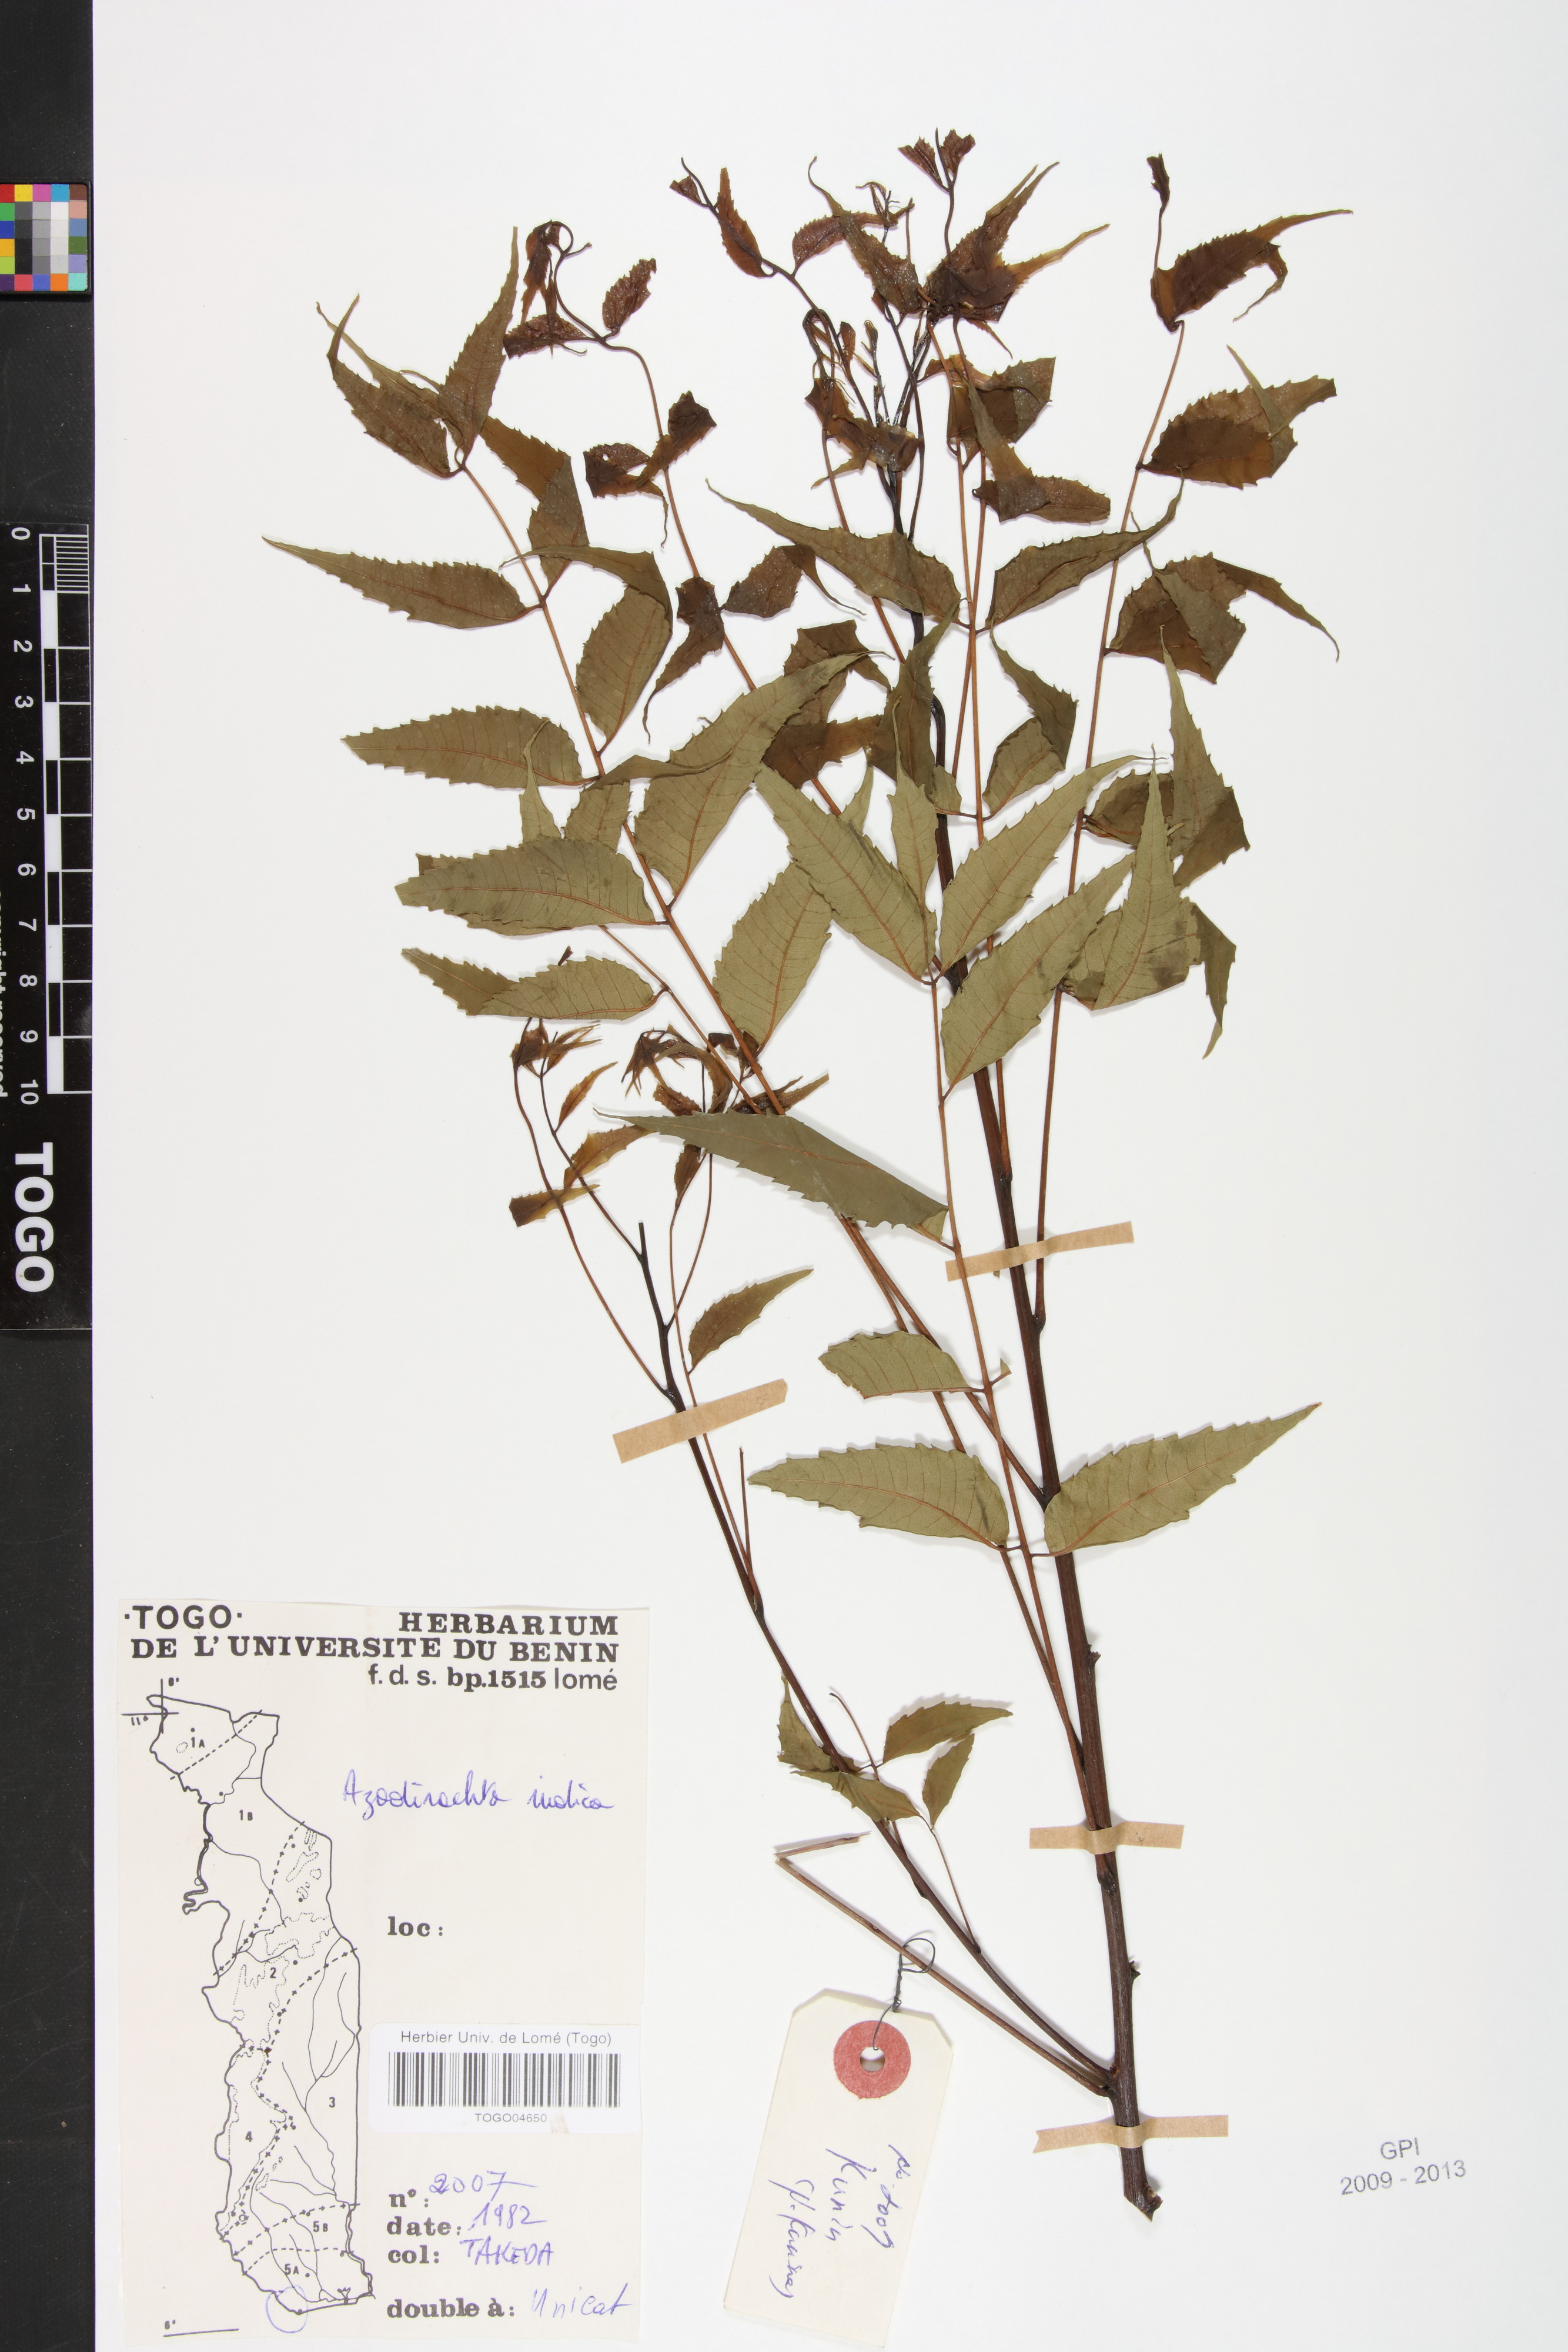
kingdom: Plantae
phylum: Tracheophyta
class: Magnoliopsida
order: Sapindales
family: Meliaceae
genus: Azadirachta
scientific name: Azadirachta indica
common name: Neem
